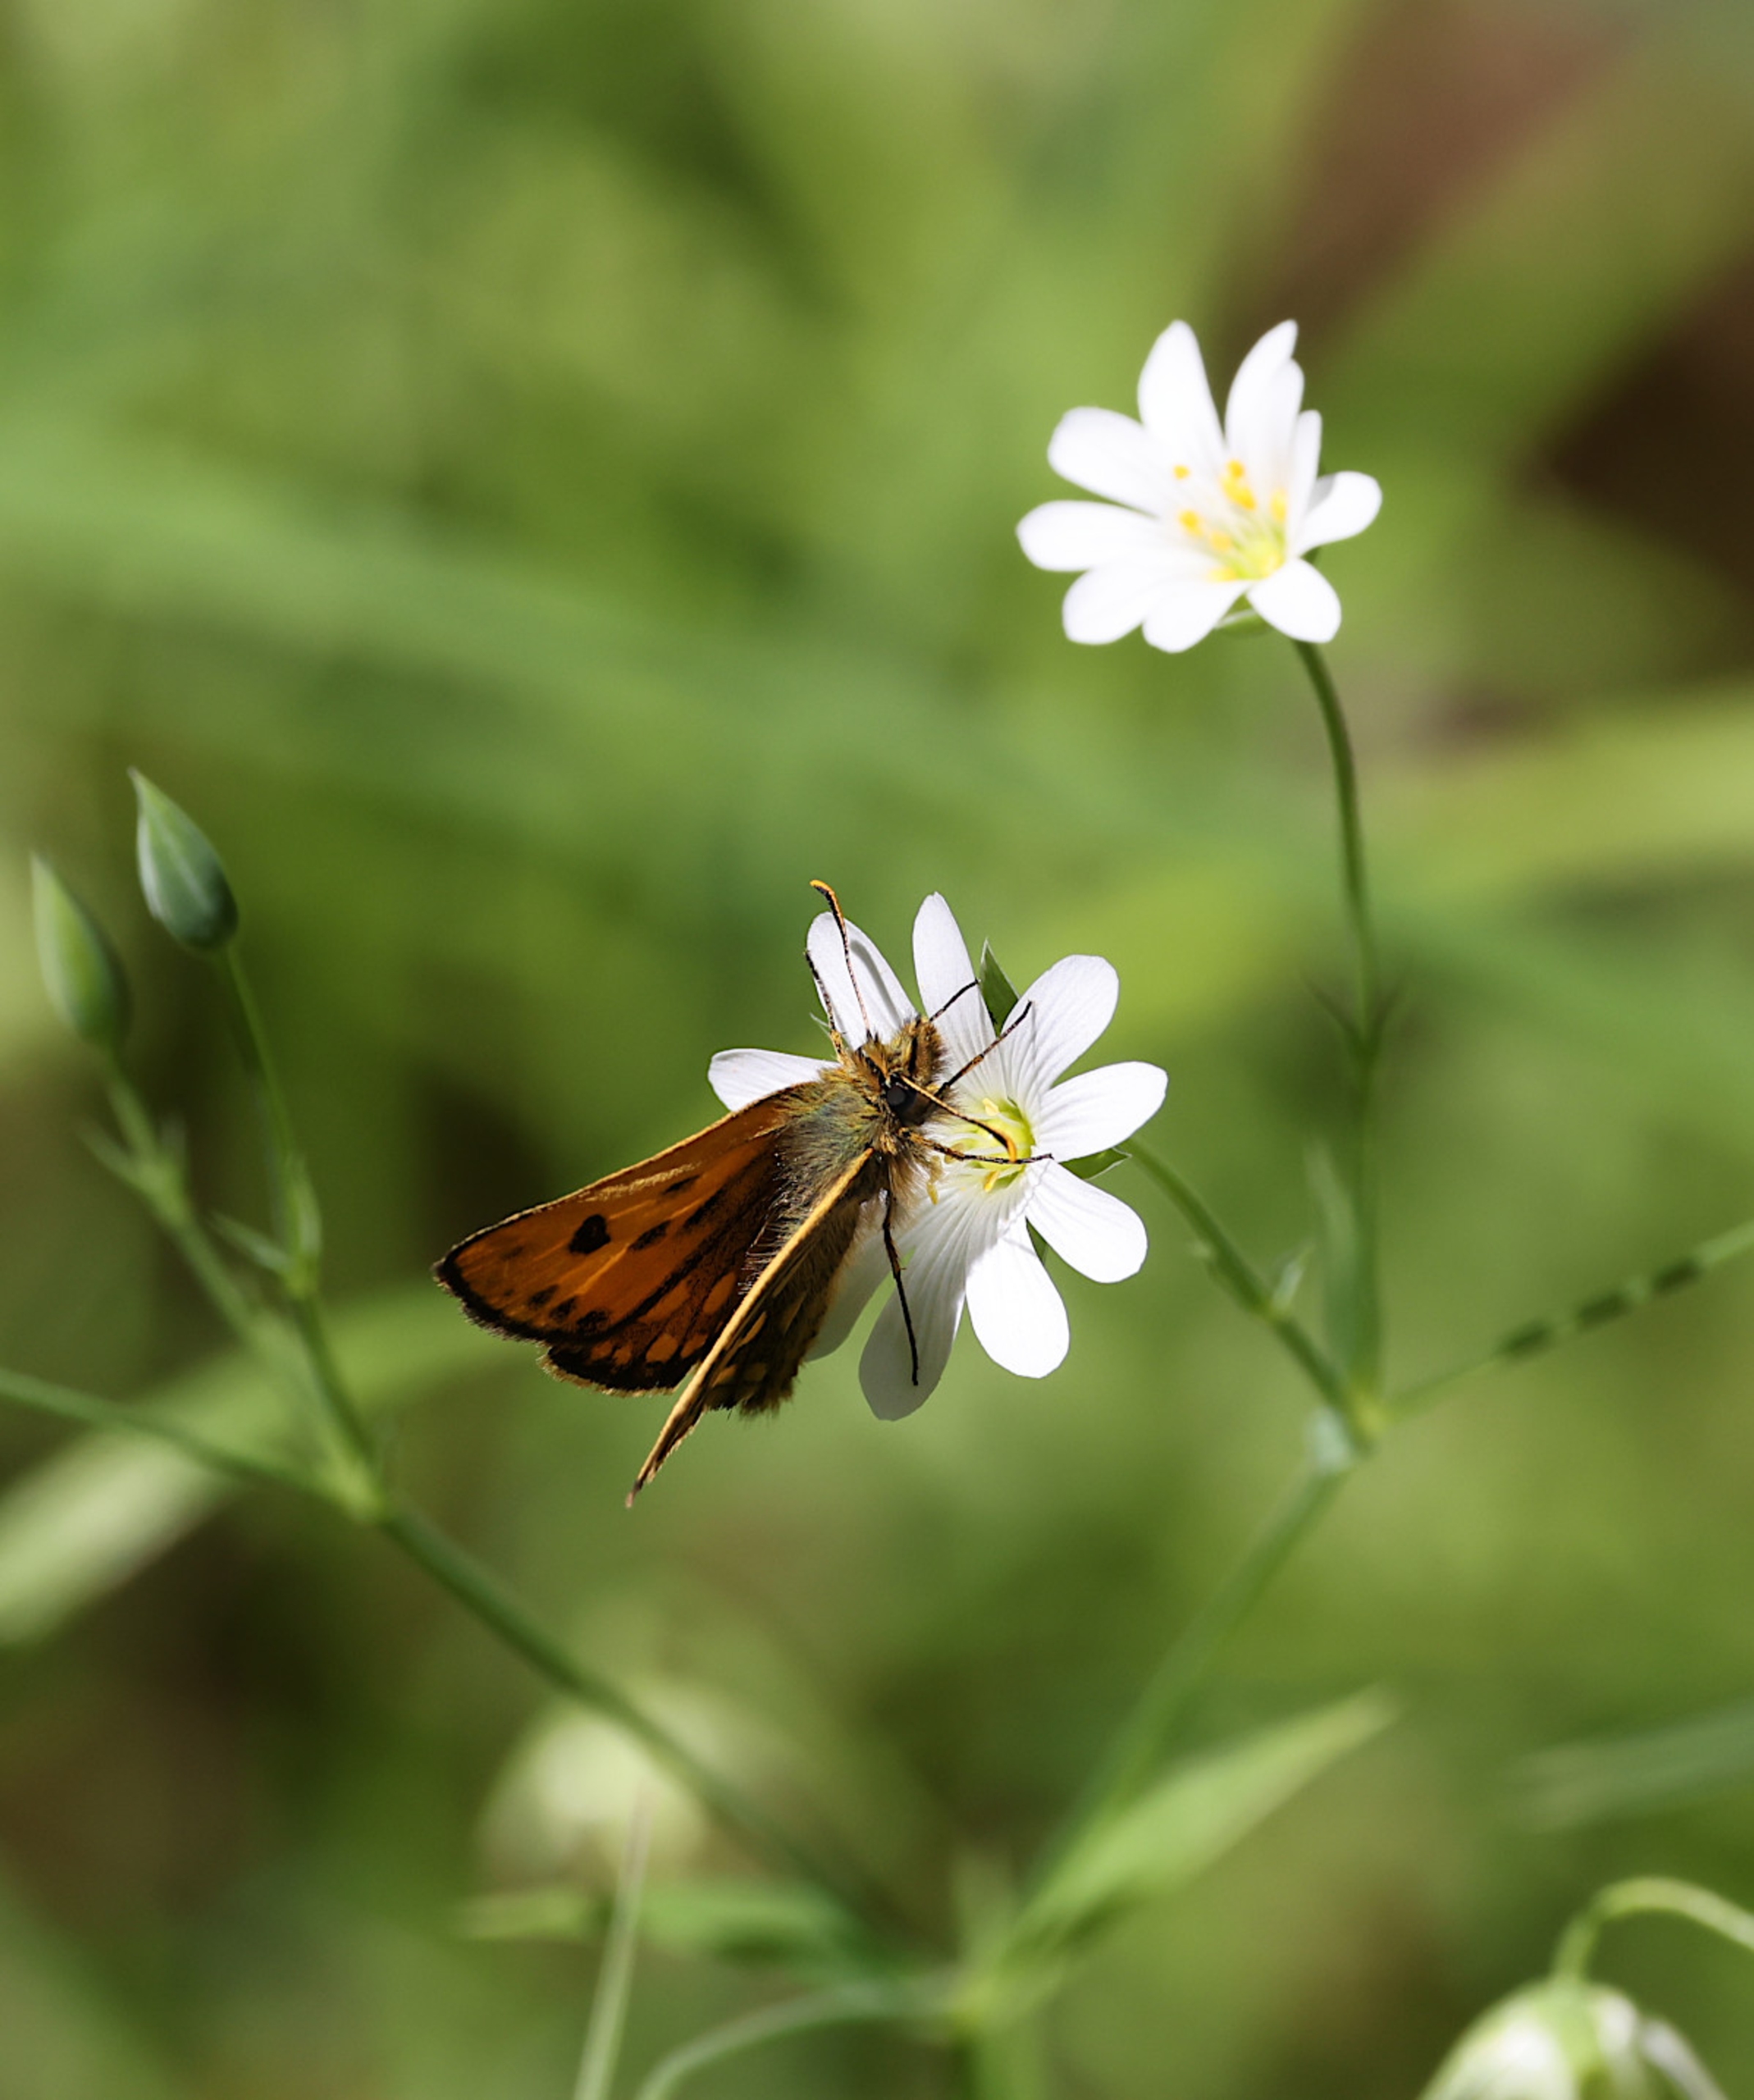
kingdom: Animalia
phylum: Arthropoda
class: Insecta
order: Lepidoptera
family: Hesperiidae
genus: Carterocephalus
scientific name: Carterocephalus silvicola
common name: Sortplettet bredpande
